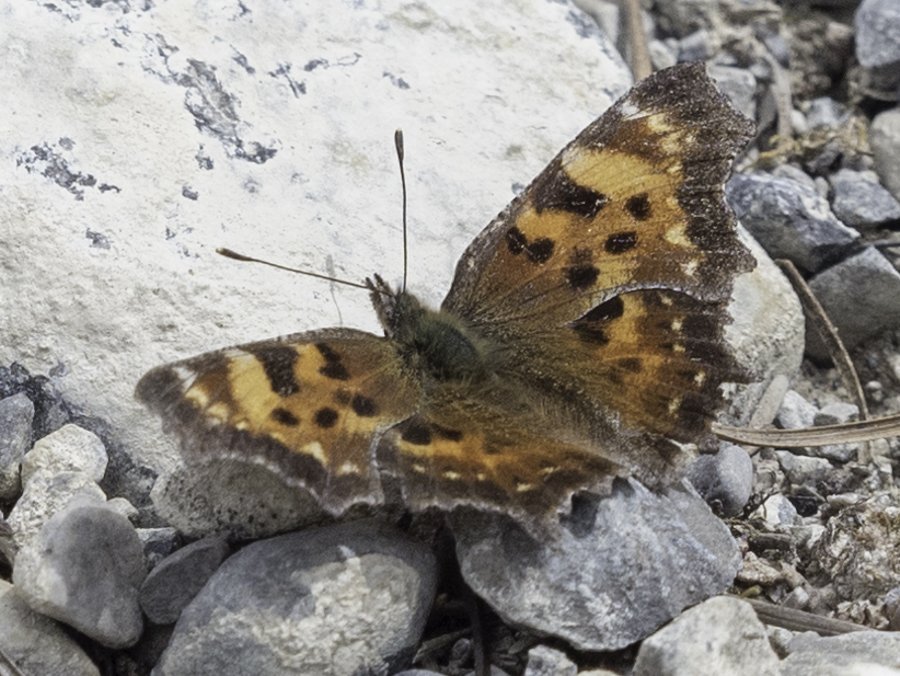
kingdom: Animalia
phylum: Arthropoda
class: Insecta
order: Lepidoptera
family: Nymphalidae
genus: Polygonia
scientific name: Polygonia faunus
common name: Green Comma
